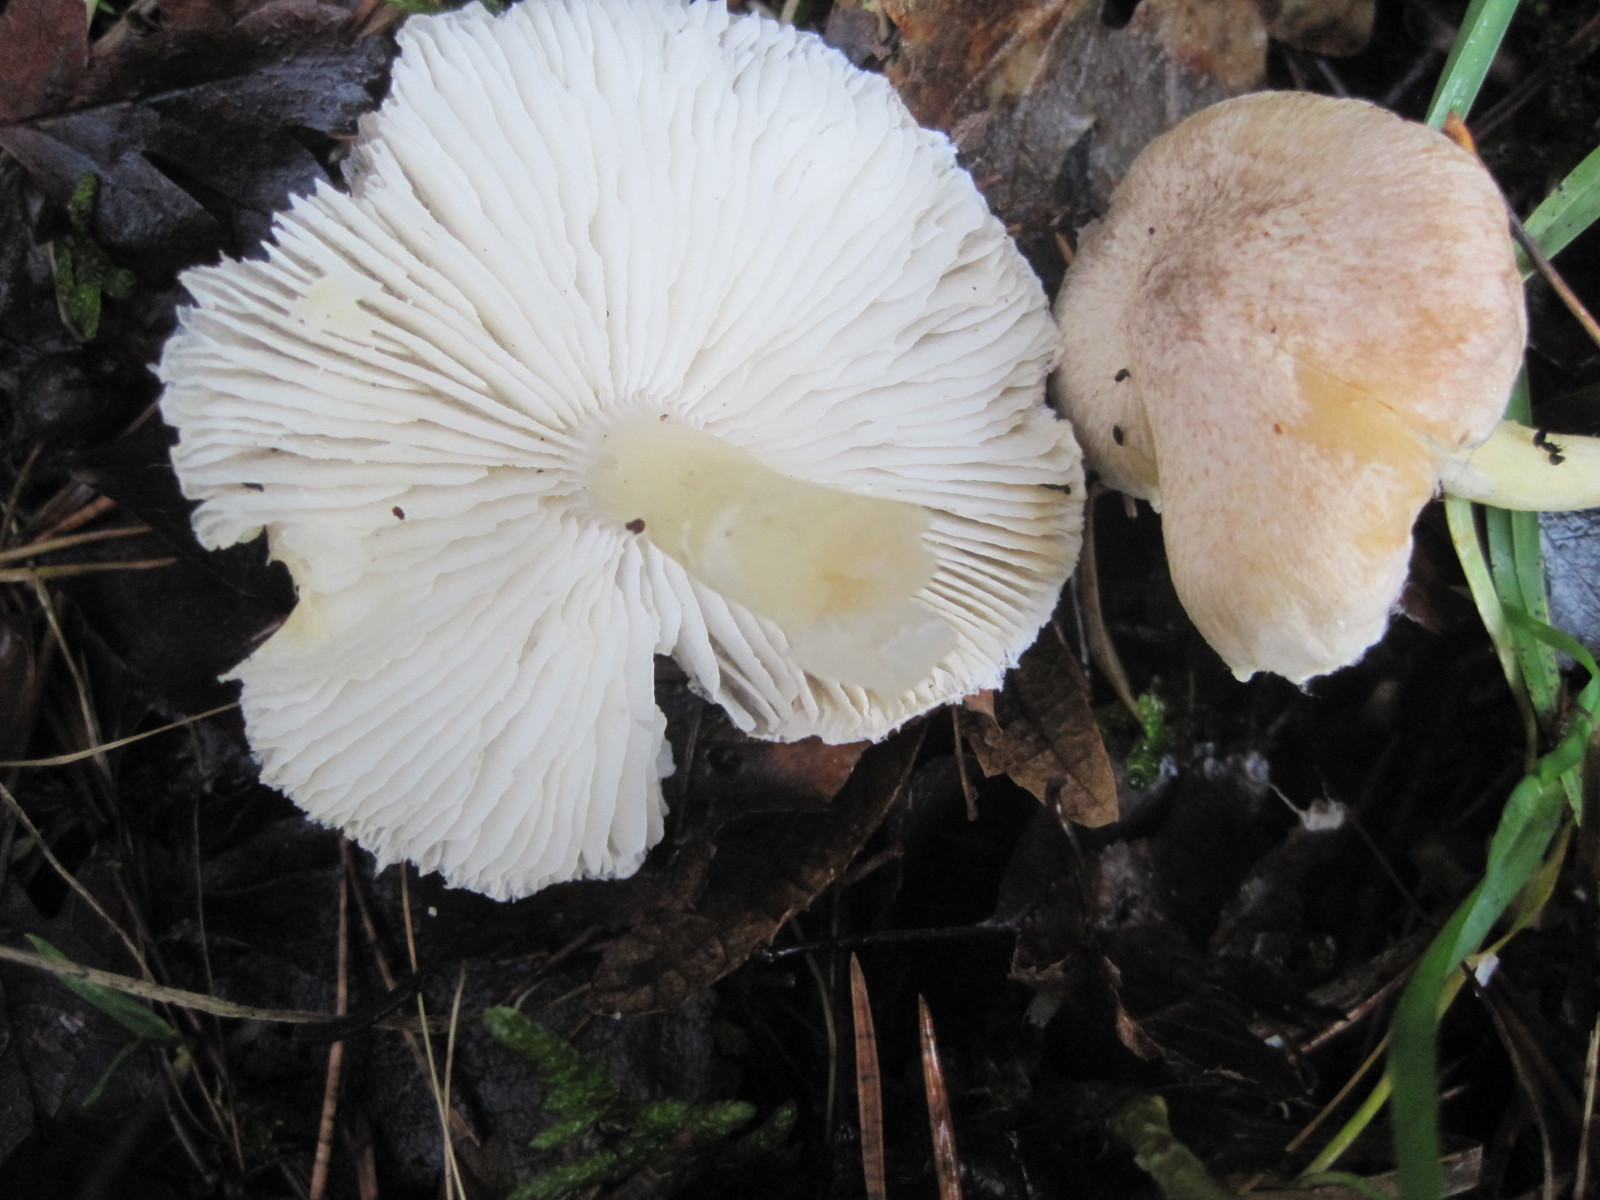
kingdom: Fungi
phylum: Basidiomycota
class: Agaricomycetes
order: Agaricales
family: Tricholomataceae
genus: Tricholoma
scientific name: Tricholoma scalpturatum
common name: gulplettet ridderhat
